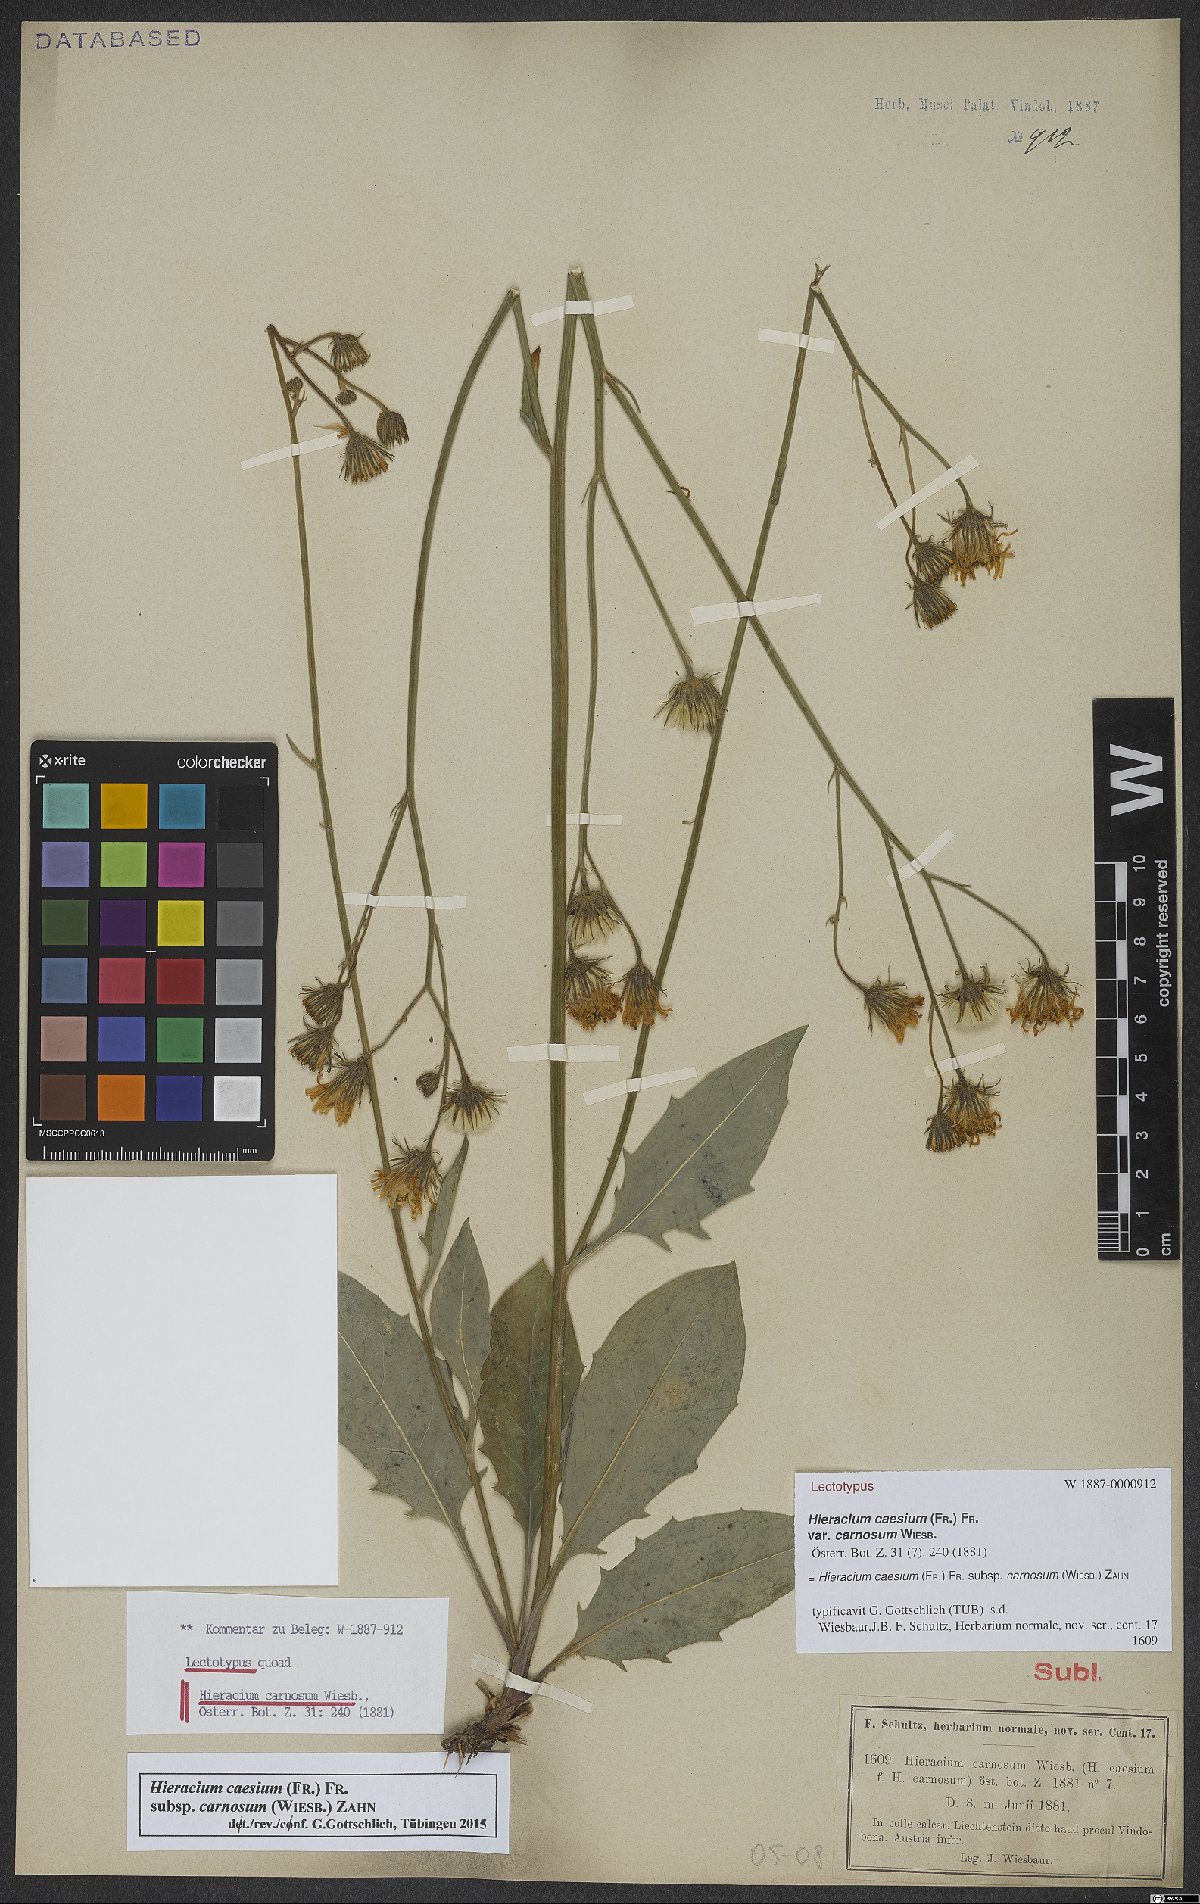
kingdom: Plantae
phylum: Tracheophyta
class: Magnoliopsida
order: Asterales
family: Asteraceae
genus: Hieracium
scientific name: Hieracium caesium
